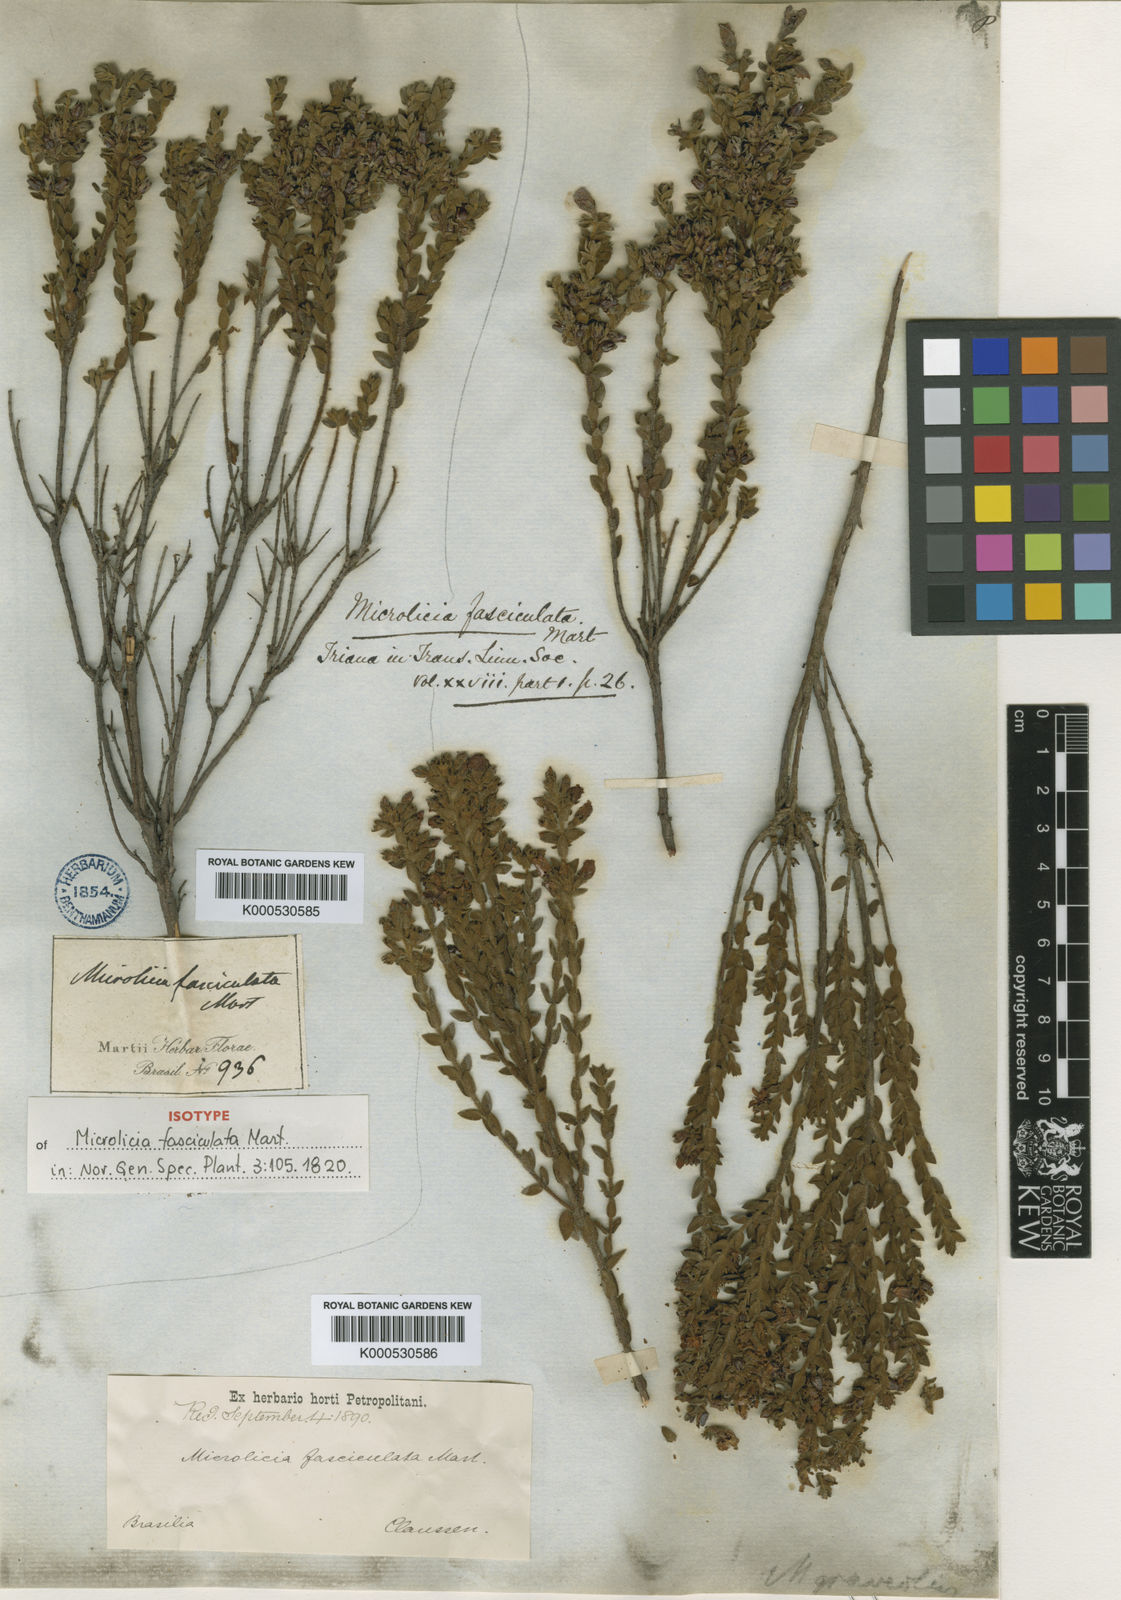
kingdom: Plantae
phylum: Tracheophyta
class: Magnoliopsida
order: Myrtales
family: Melastomataceae
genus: Microlicia
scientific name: Microlicia
